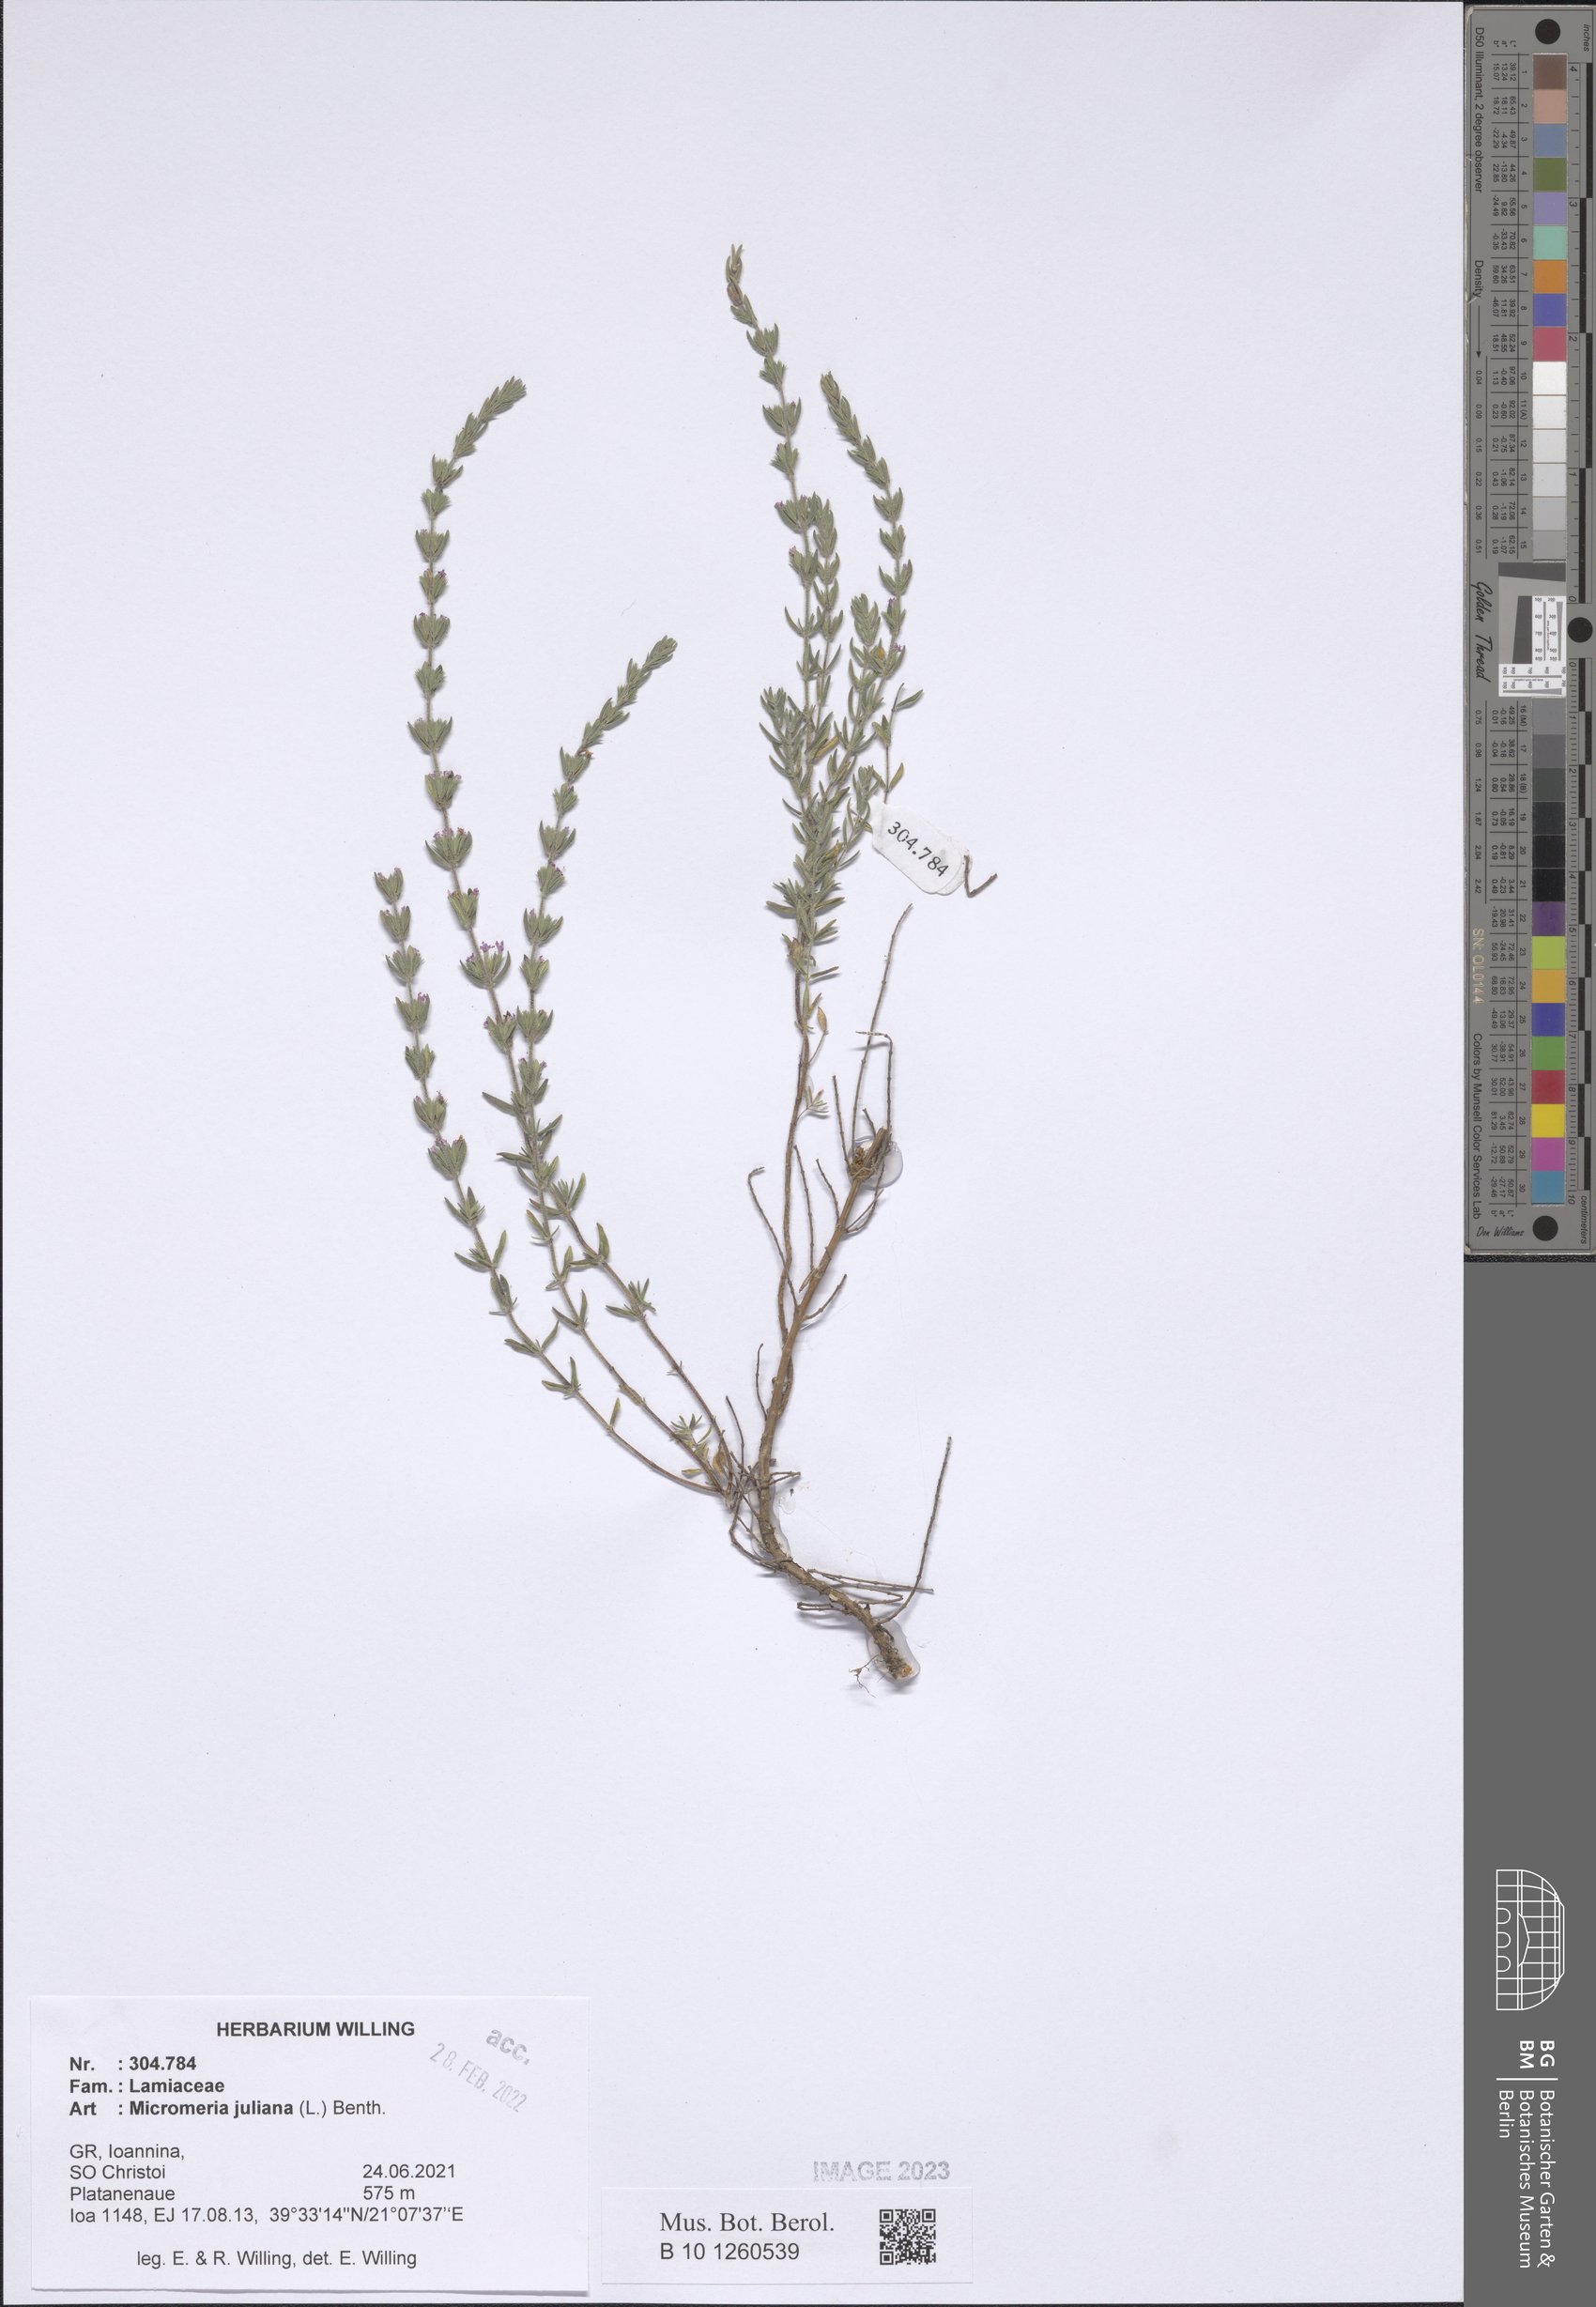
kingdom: Plantae
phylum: Tracheophyta
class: Magnoliopsida
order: Lamiales
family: Lamiaceae
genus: Micromeria
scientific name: Micromeria juliana
